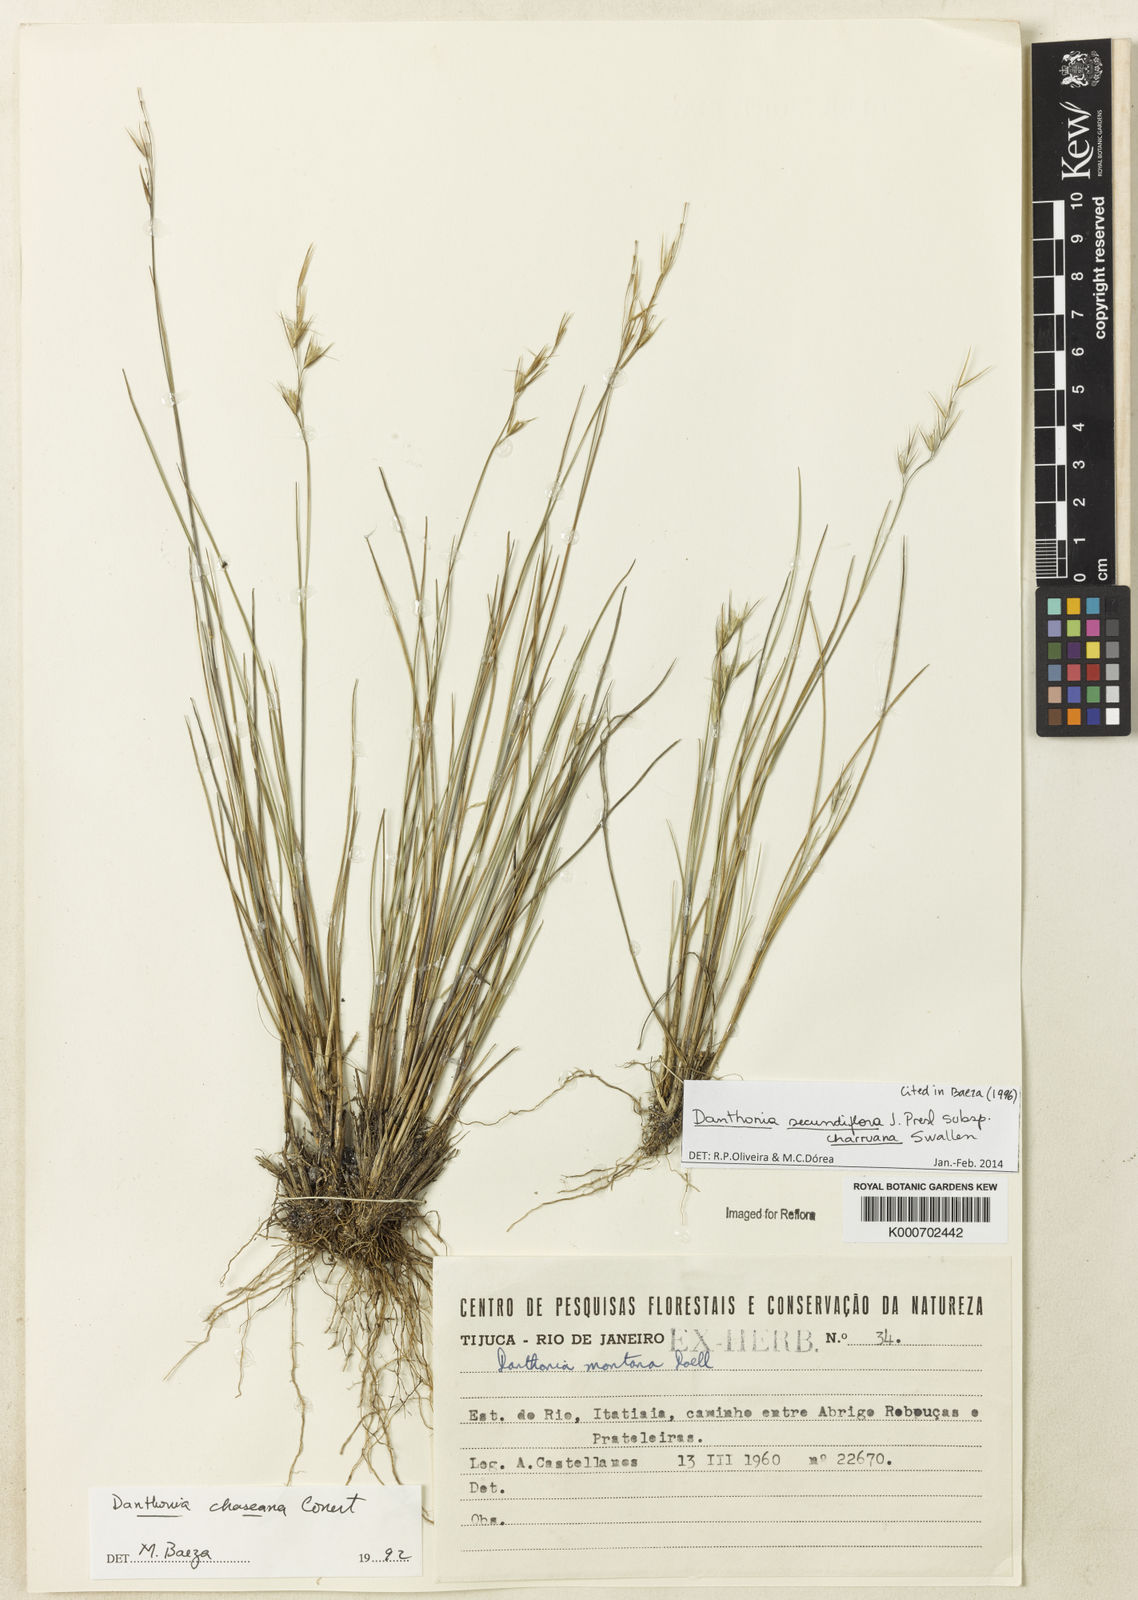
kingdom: Plantae
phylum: Tracheophyta
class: Liliopsida
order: Poales
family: Poaceae
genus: Danthonia
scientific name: Danthonia chaseana
